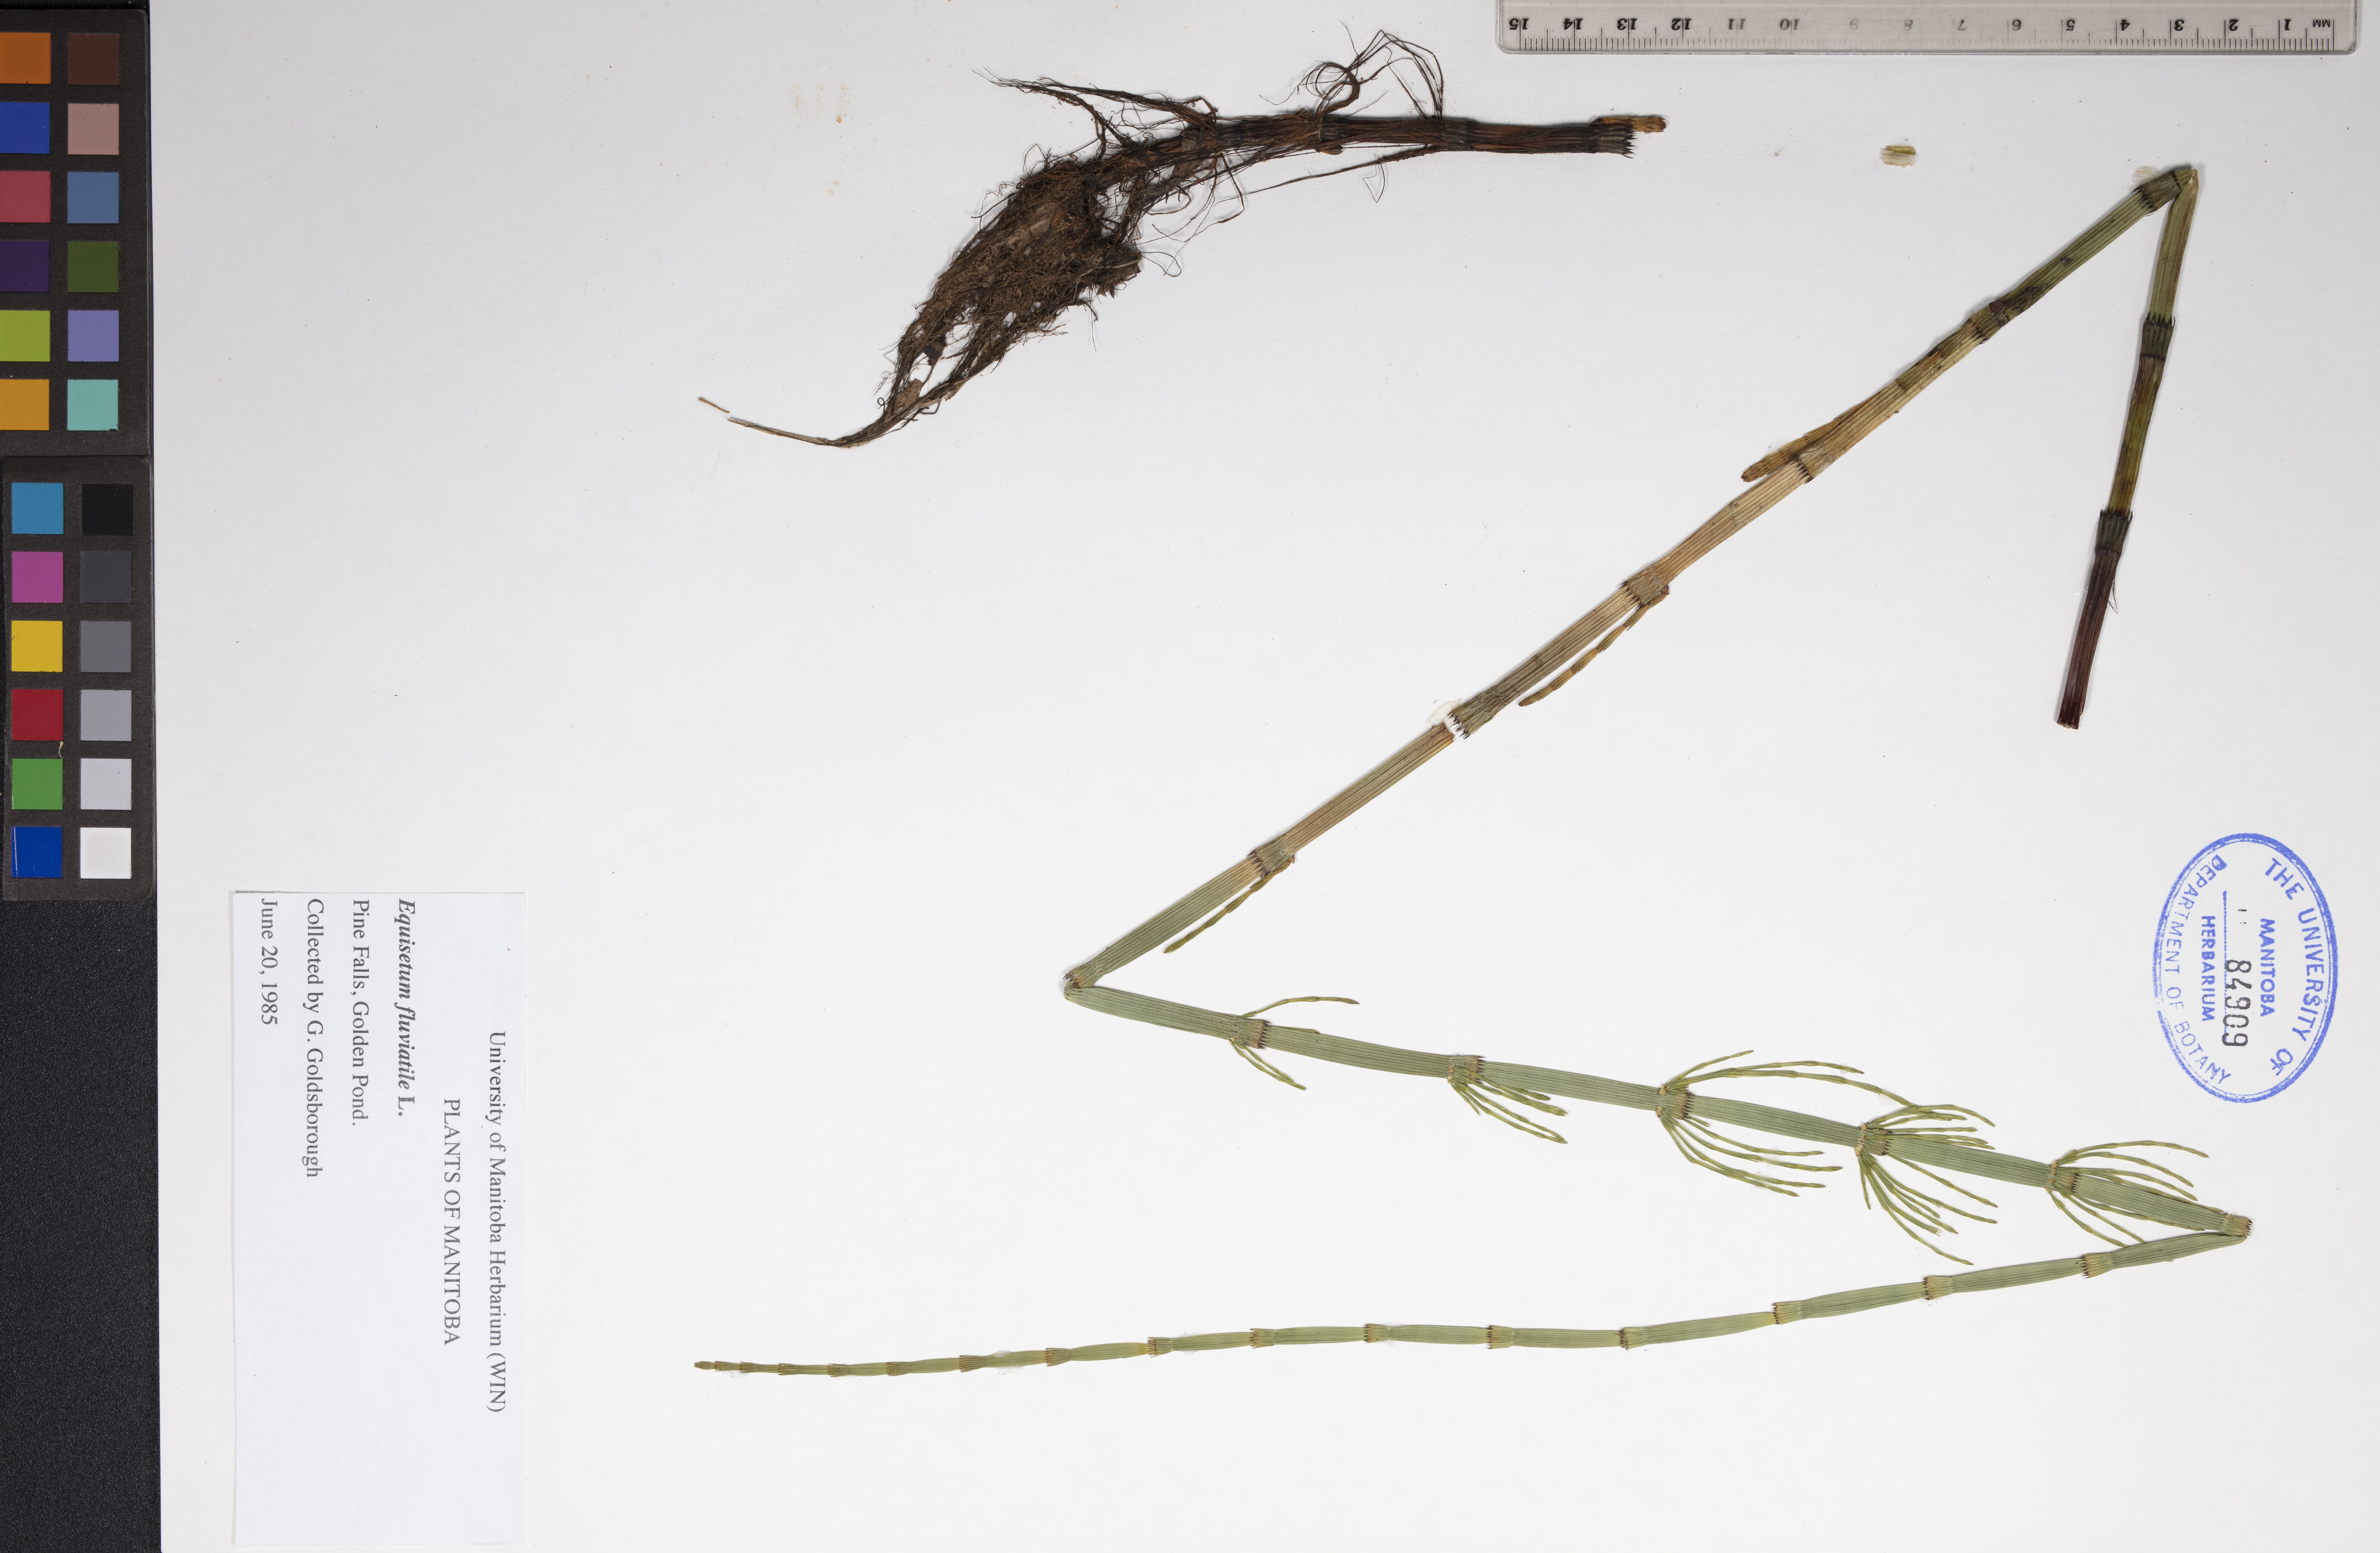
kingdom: Plantae
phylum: Tracheophyta
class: Polypodiopsida
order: Equisetales
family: Equisetaceae
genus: Equisetum
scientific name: Equisetum fluviatile
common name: Water horsetail
